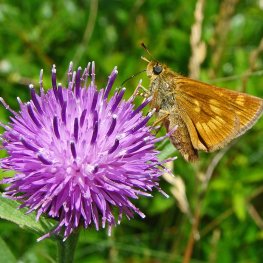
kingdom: Animalia
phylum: Arthropoda
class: Insecta
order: Lepidoptera
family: Hesperiidae
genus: Polites
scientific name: Polites
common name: Long Dash Skipper
